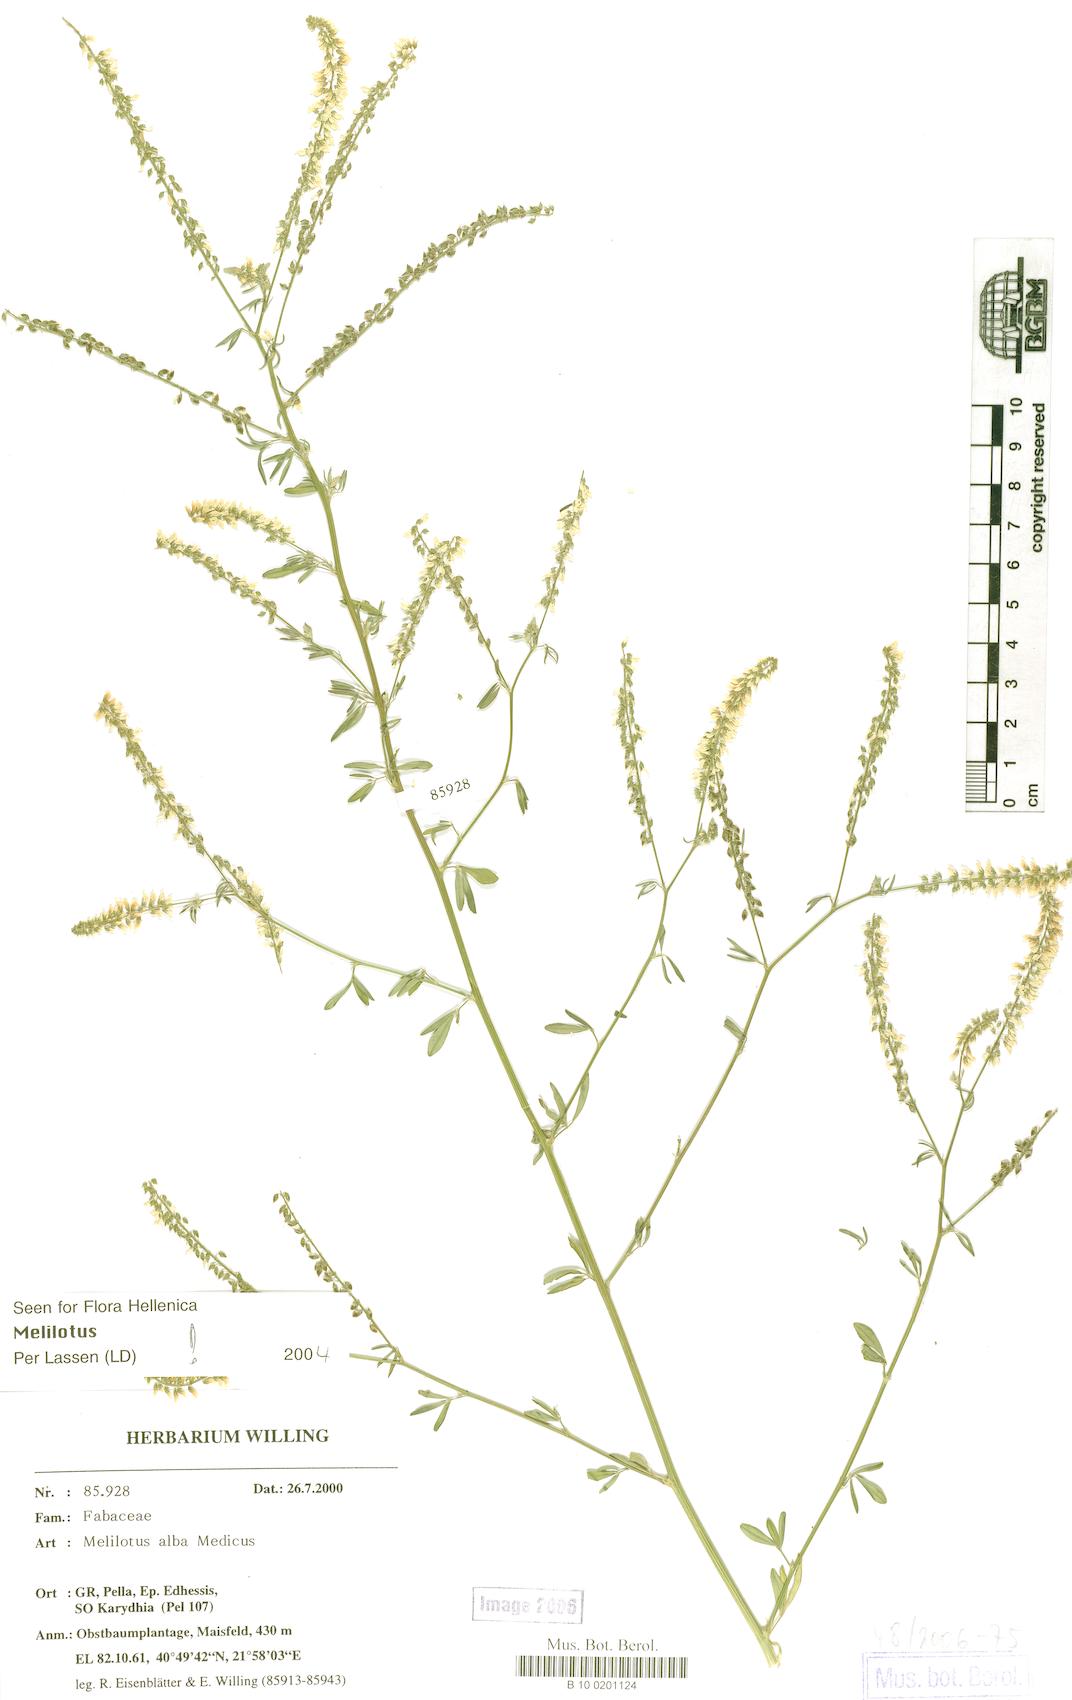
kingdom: Plantae
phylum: Tracheophyta
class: Magnoliopsida
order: Fabales
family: Fabaceae
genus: Melilotus
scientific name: Melilotus albus
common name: White melilot
